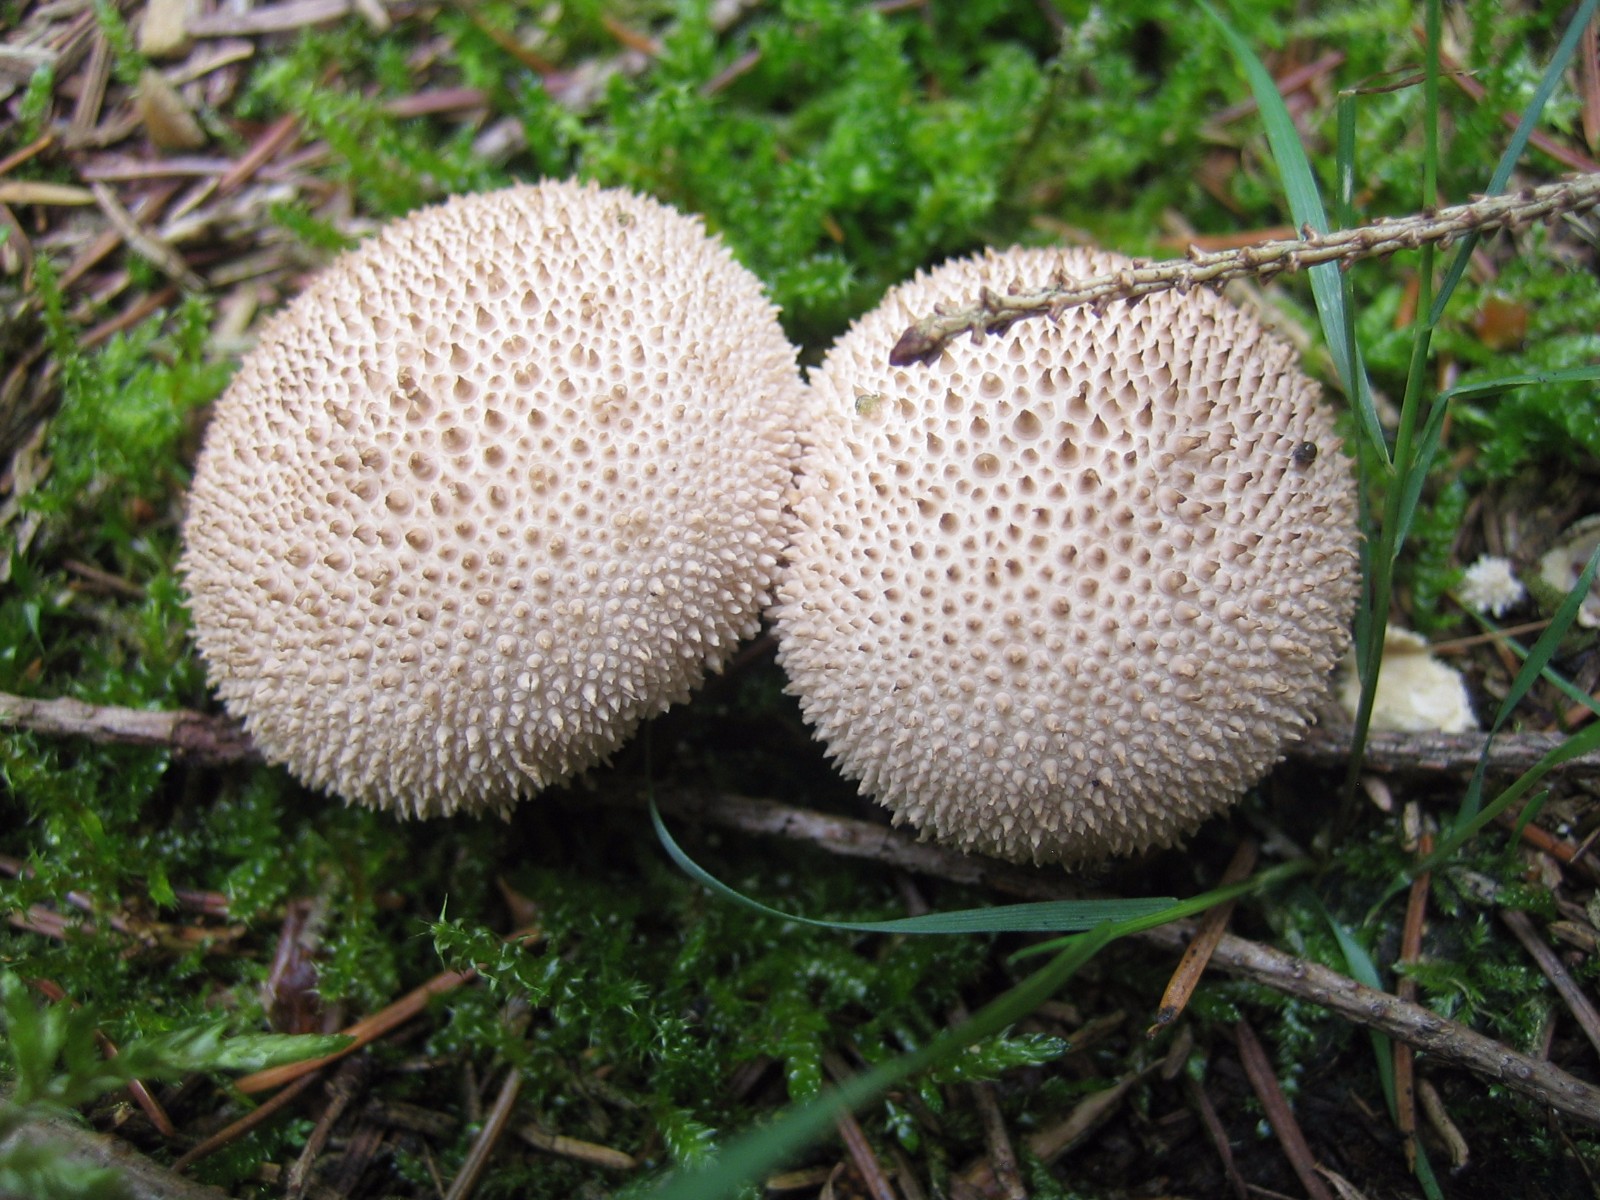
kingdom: Fungi
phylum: Basidiomycota
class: Agaricomycetes
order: Agaricales
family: Lycoperdaceae
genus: Lycoperdon
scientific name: Lycoperdon perlatum
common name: krystal-støvbold
